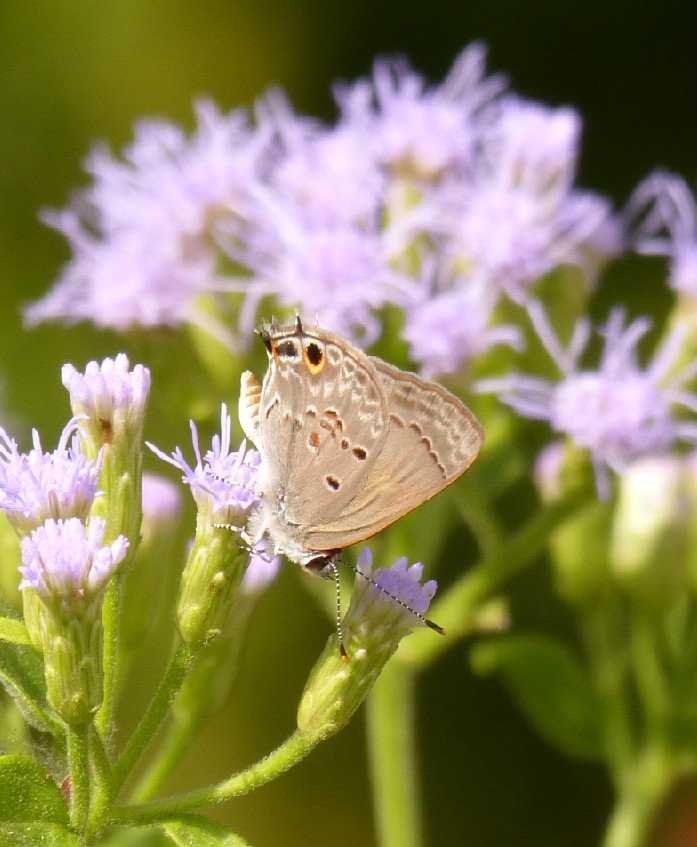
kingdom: Animalia
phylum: Arthropoda
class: Insecta
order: Lepidoptera
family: Lycaenidae
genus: Callicista
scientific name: Callicista columella
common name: Mallow Scrub-Hairstreak
